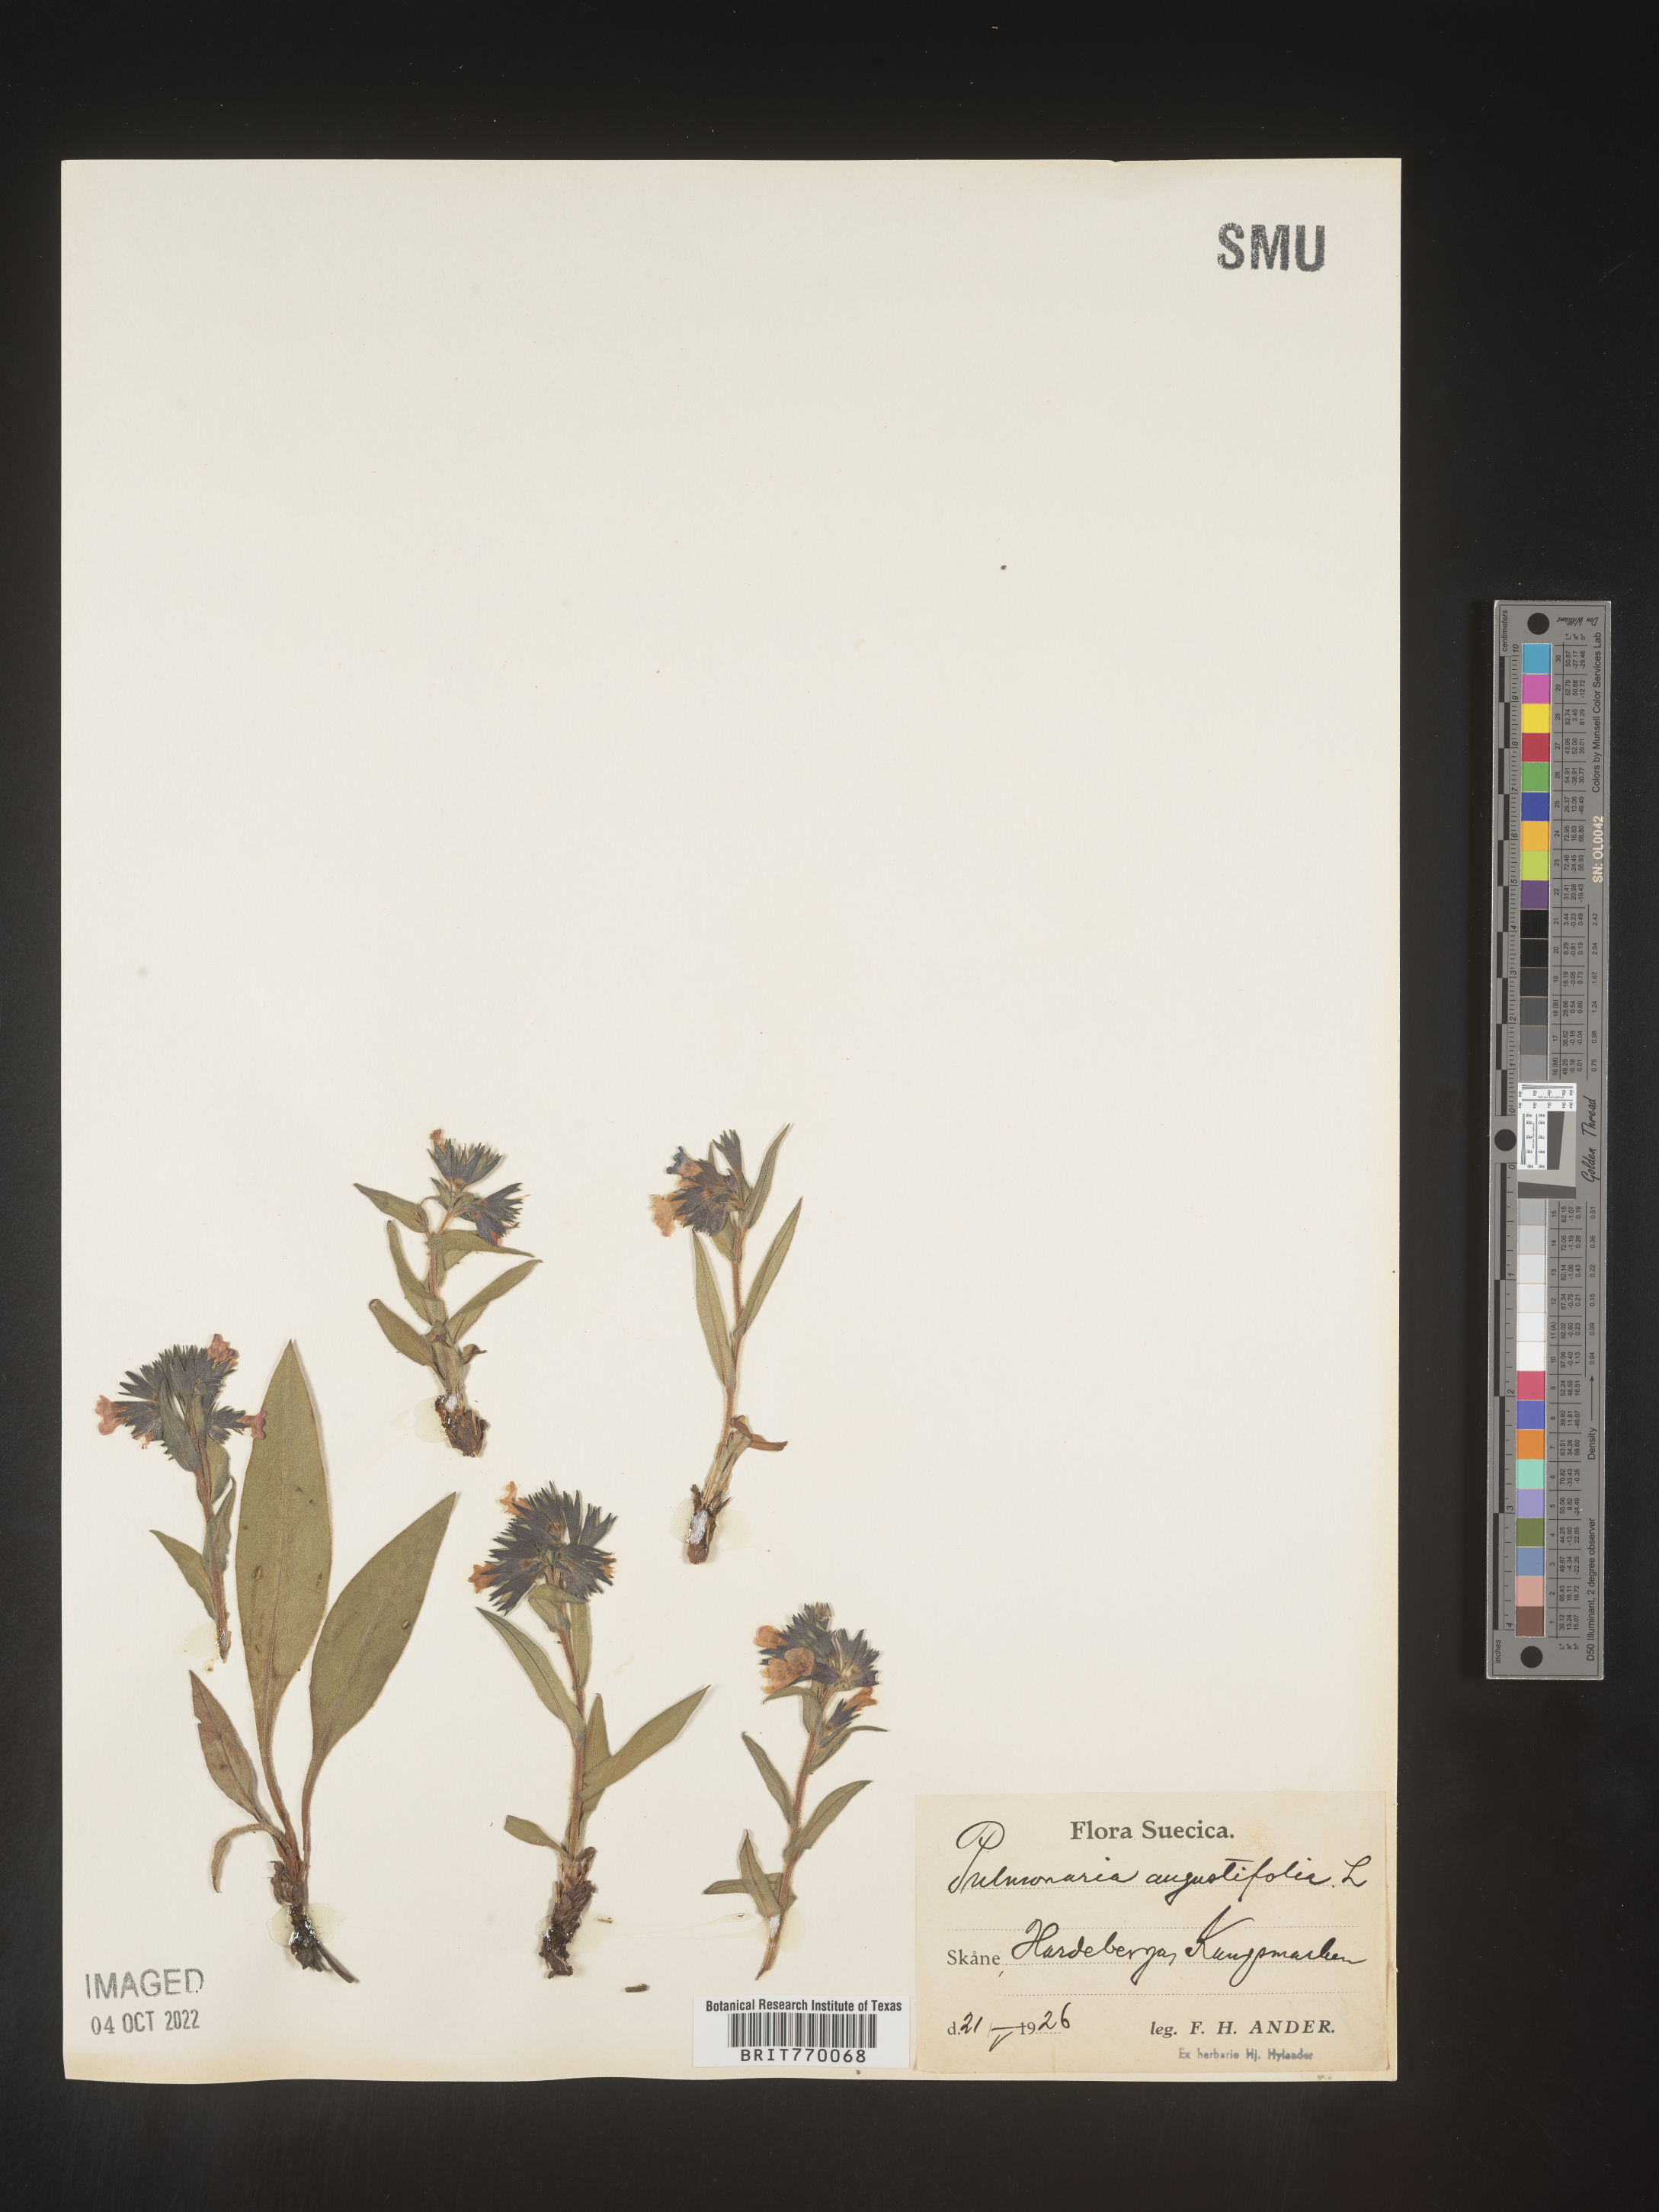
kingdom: Plantae
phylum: Tracheophyta
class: Magnoliopsida
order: Boraginales
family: Boraginaceae
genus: Pulmonaria
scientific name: Pulmonaria
